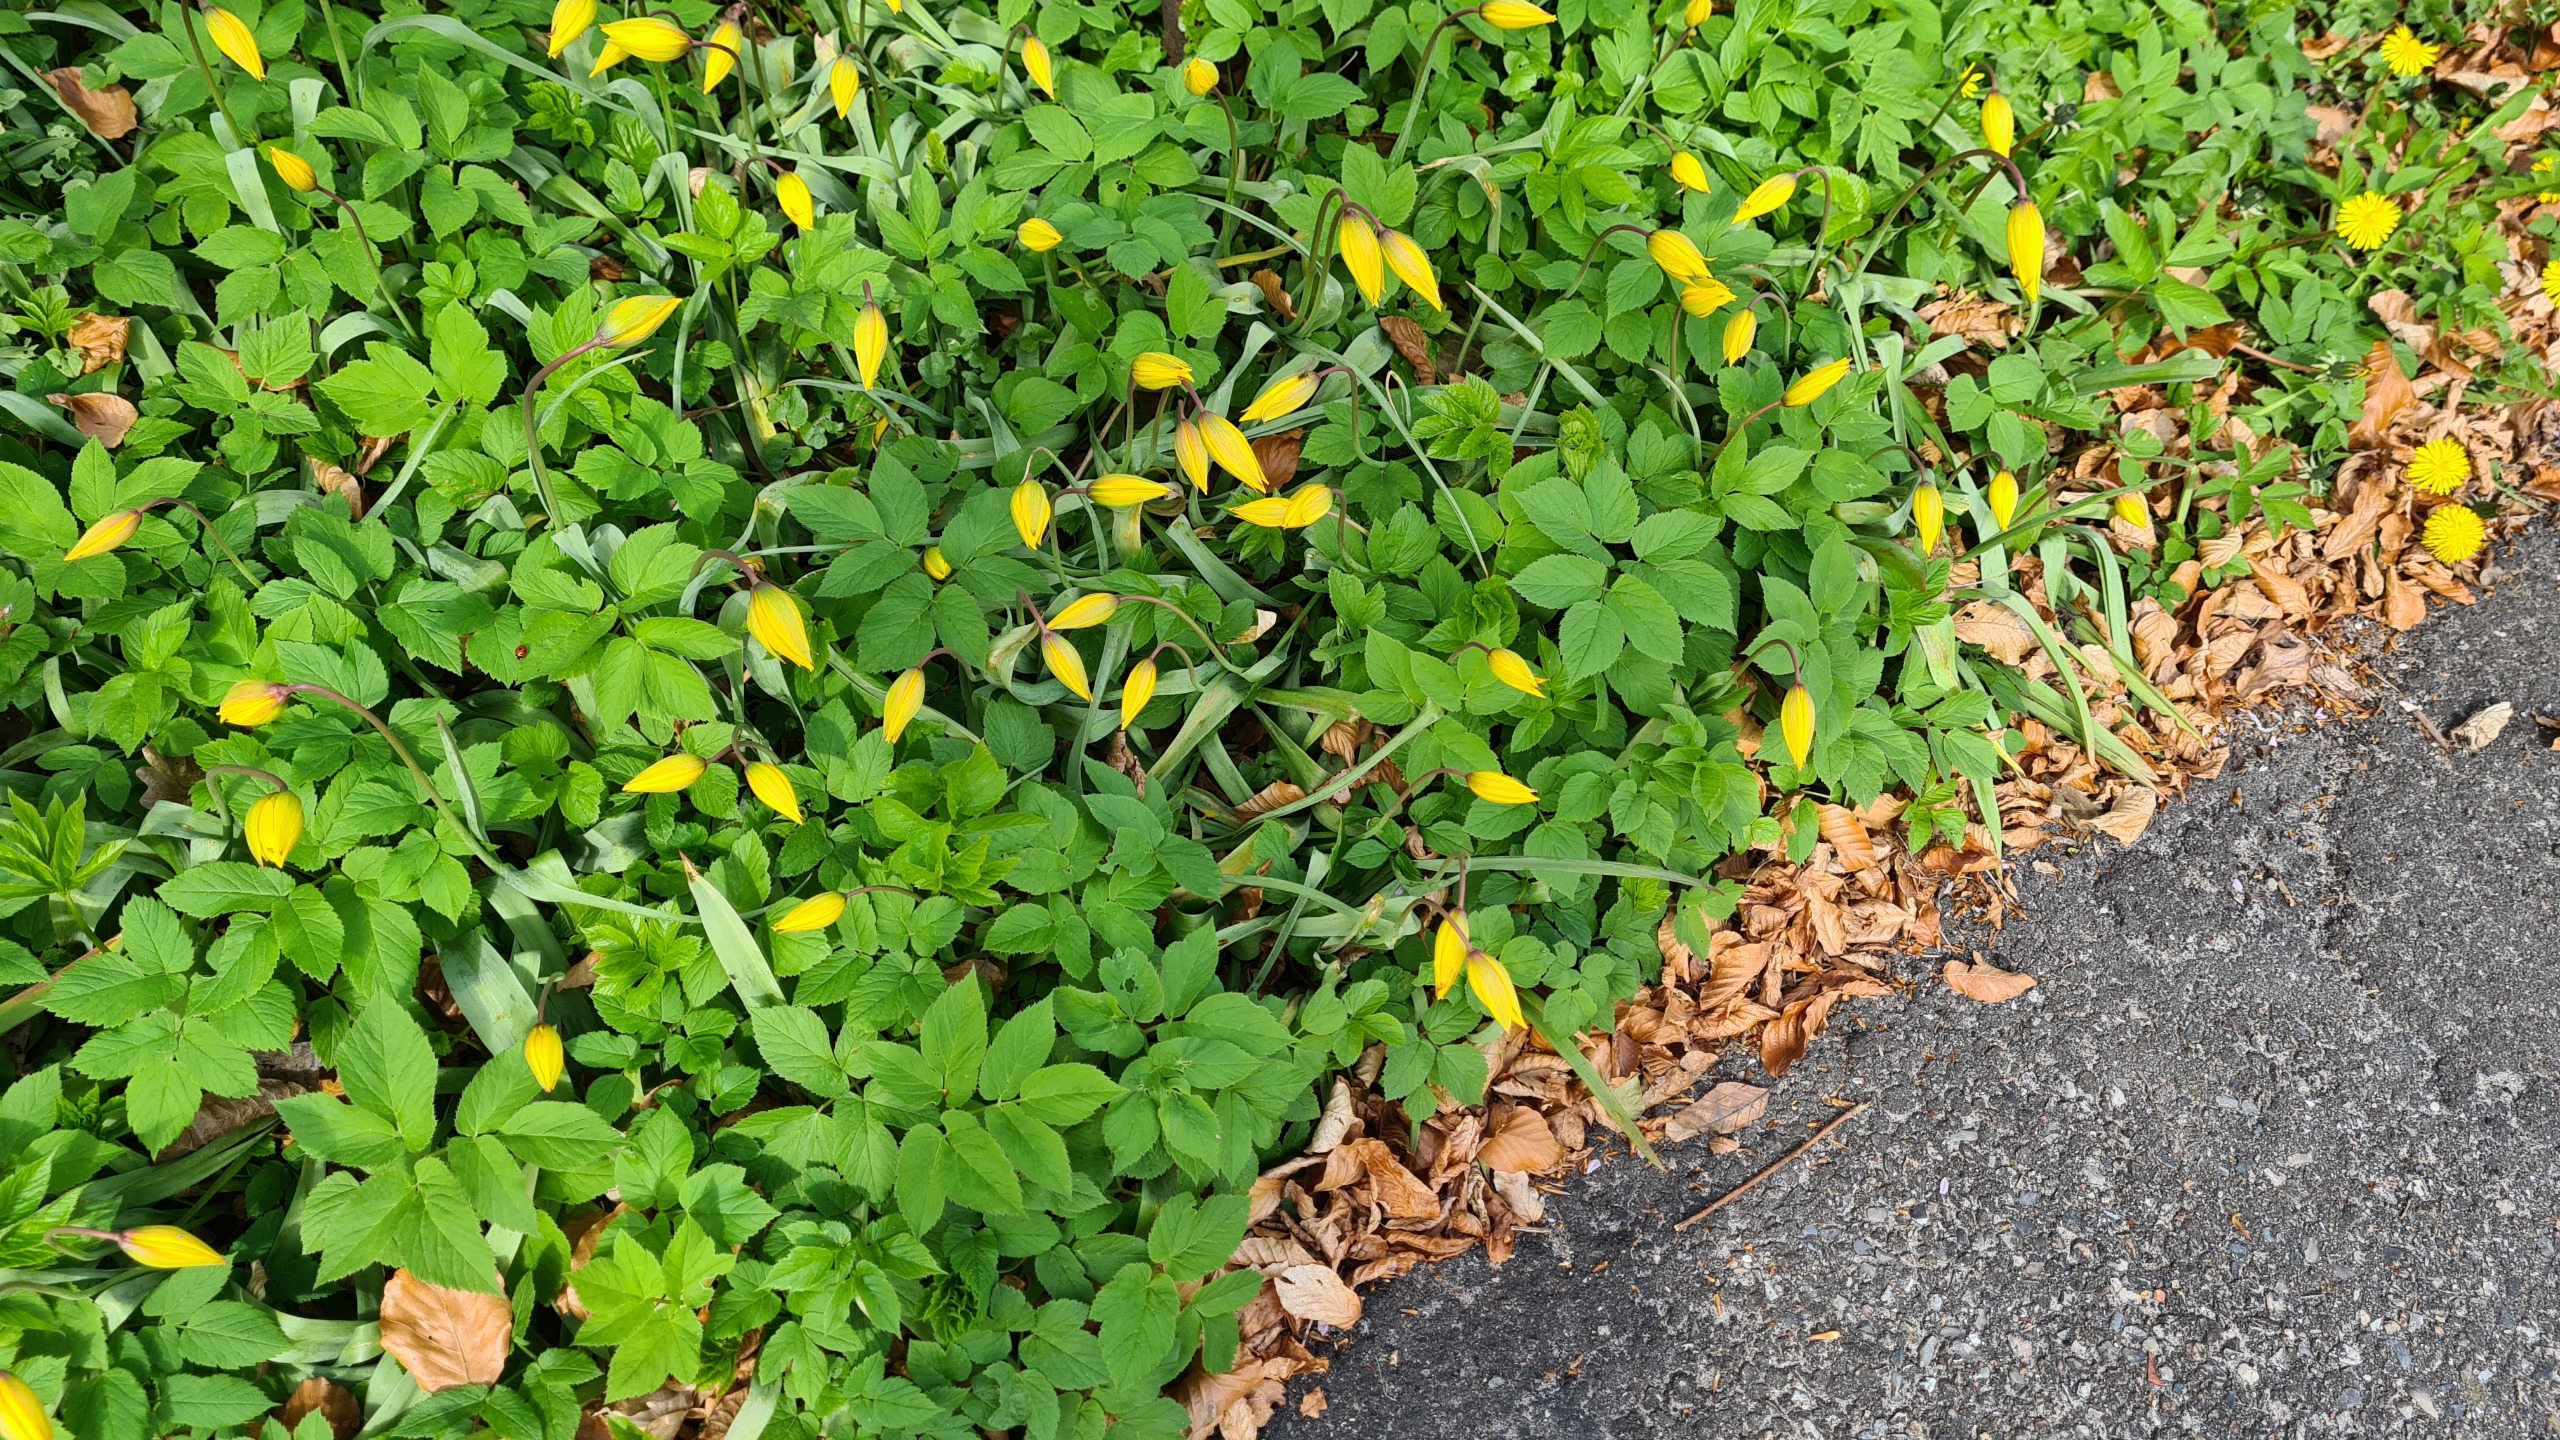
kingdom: Plantae
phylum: Tracheophyta
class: Liliopsida
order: Liliales
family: Liliaceae
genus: Tulipa
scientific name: Tulipa sylvestris
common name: Vild tulipan
